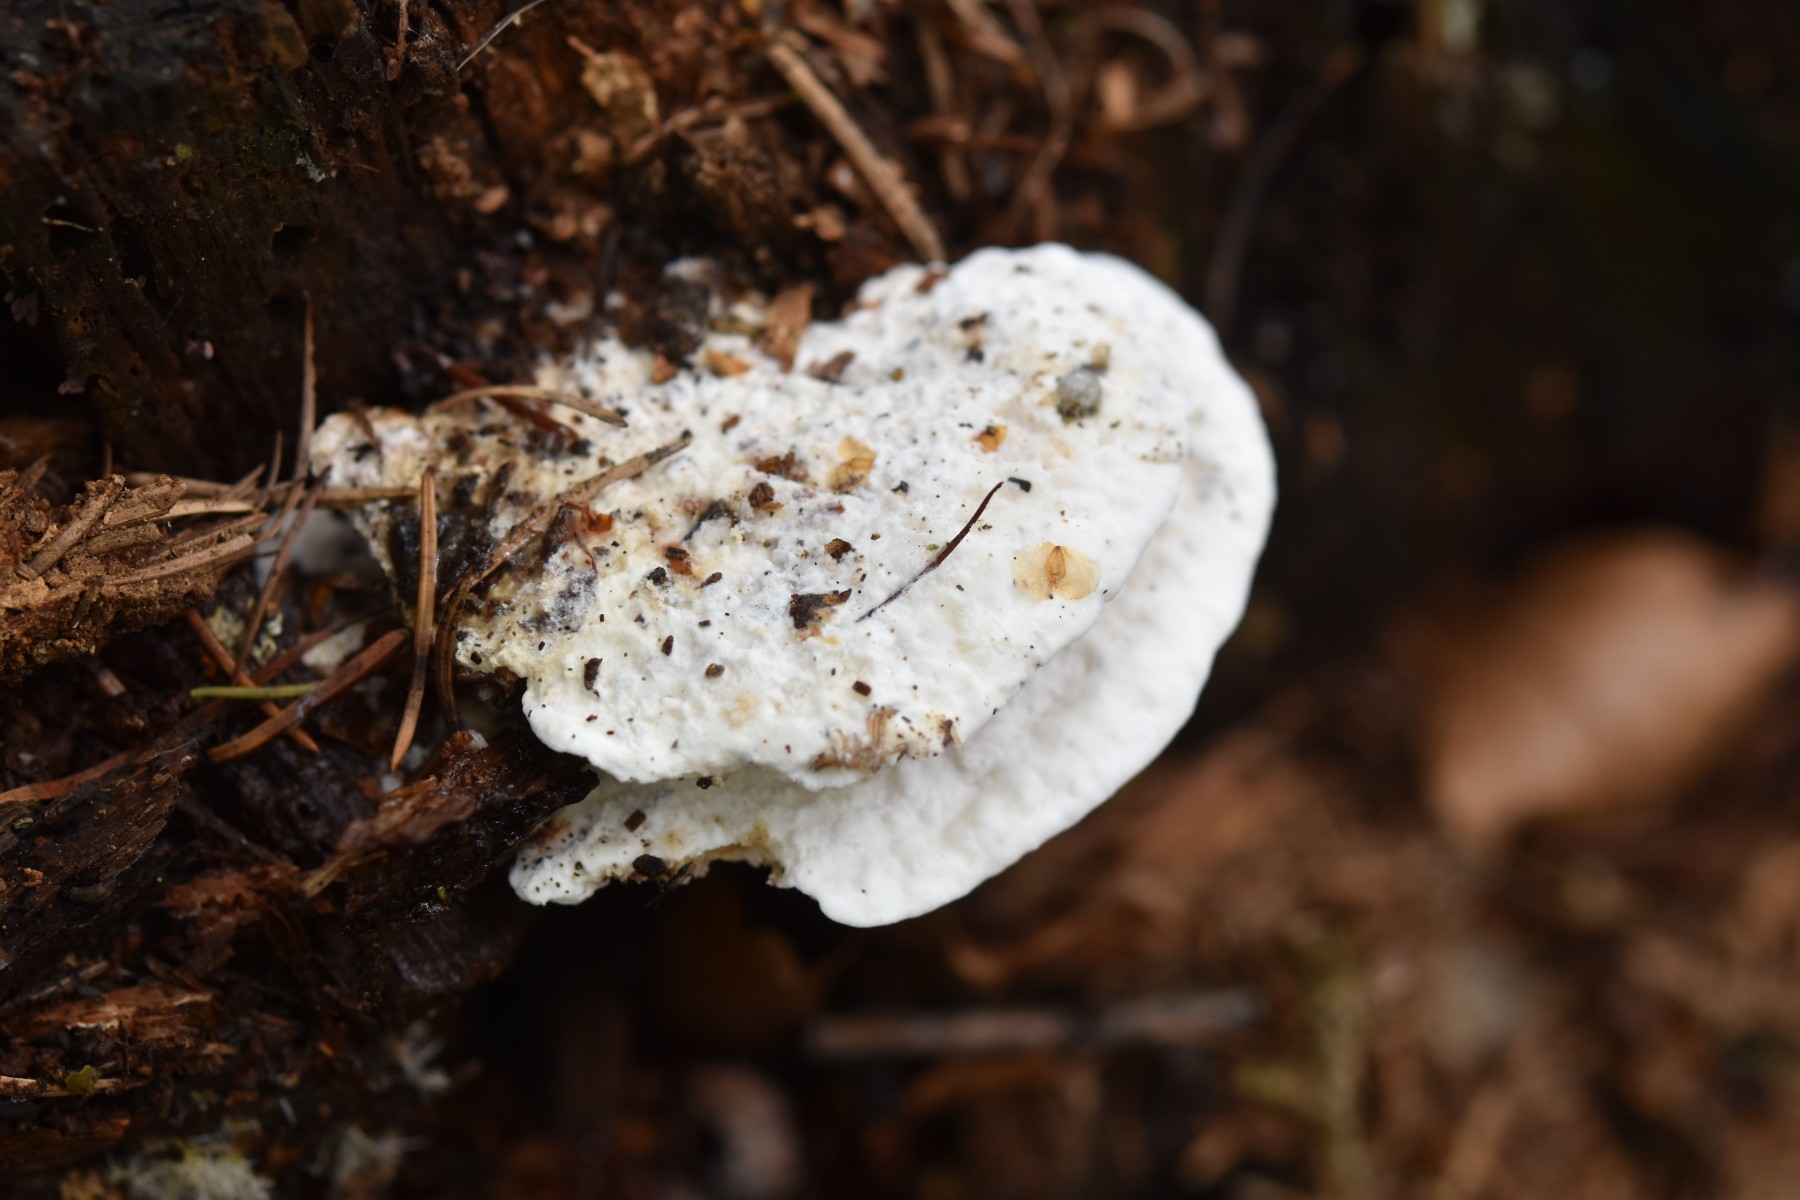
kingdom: Fungi
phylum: Basidiomycota
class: Agaricomycetes
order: Polyporales
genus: Amaropostia
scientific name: Amaropostia stiptica
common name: bitter kødporesvamp
